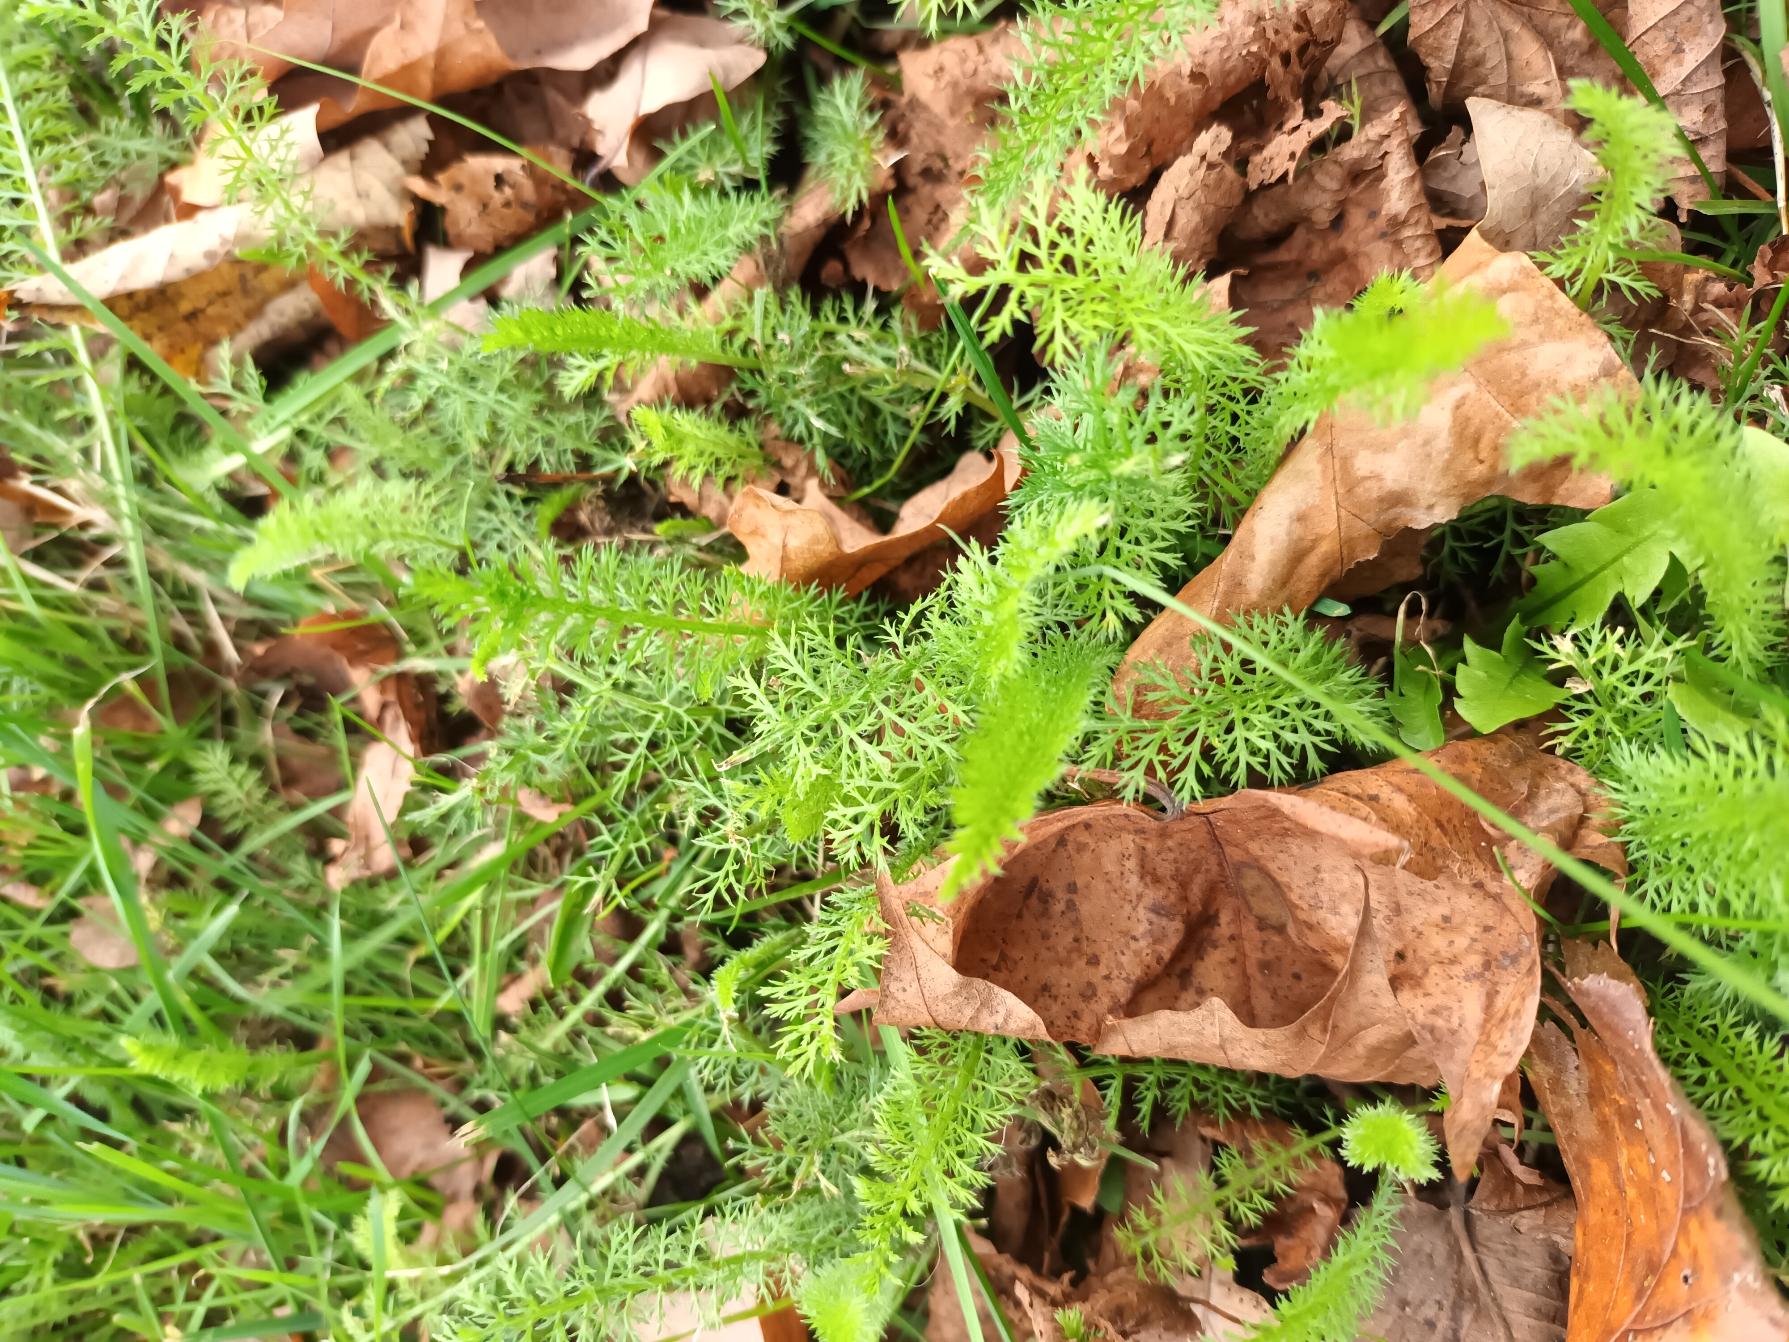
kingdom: Plantae
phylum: Tracheophyta
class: Magnoliopsida
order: Asterales
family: Asteraceae
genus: Achillea
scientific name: Achillea millefolium
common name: Almindelig røllike
